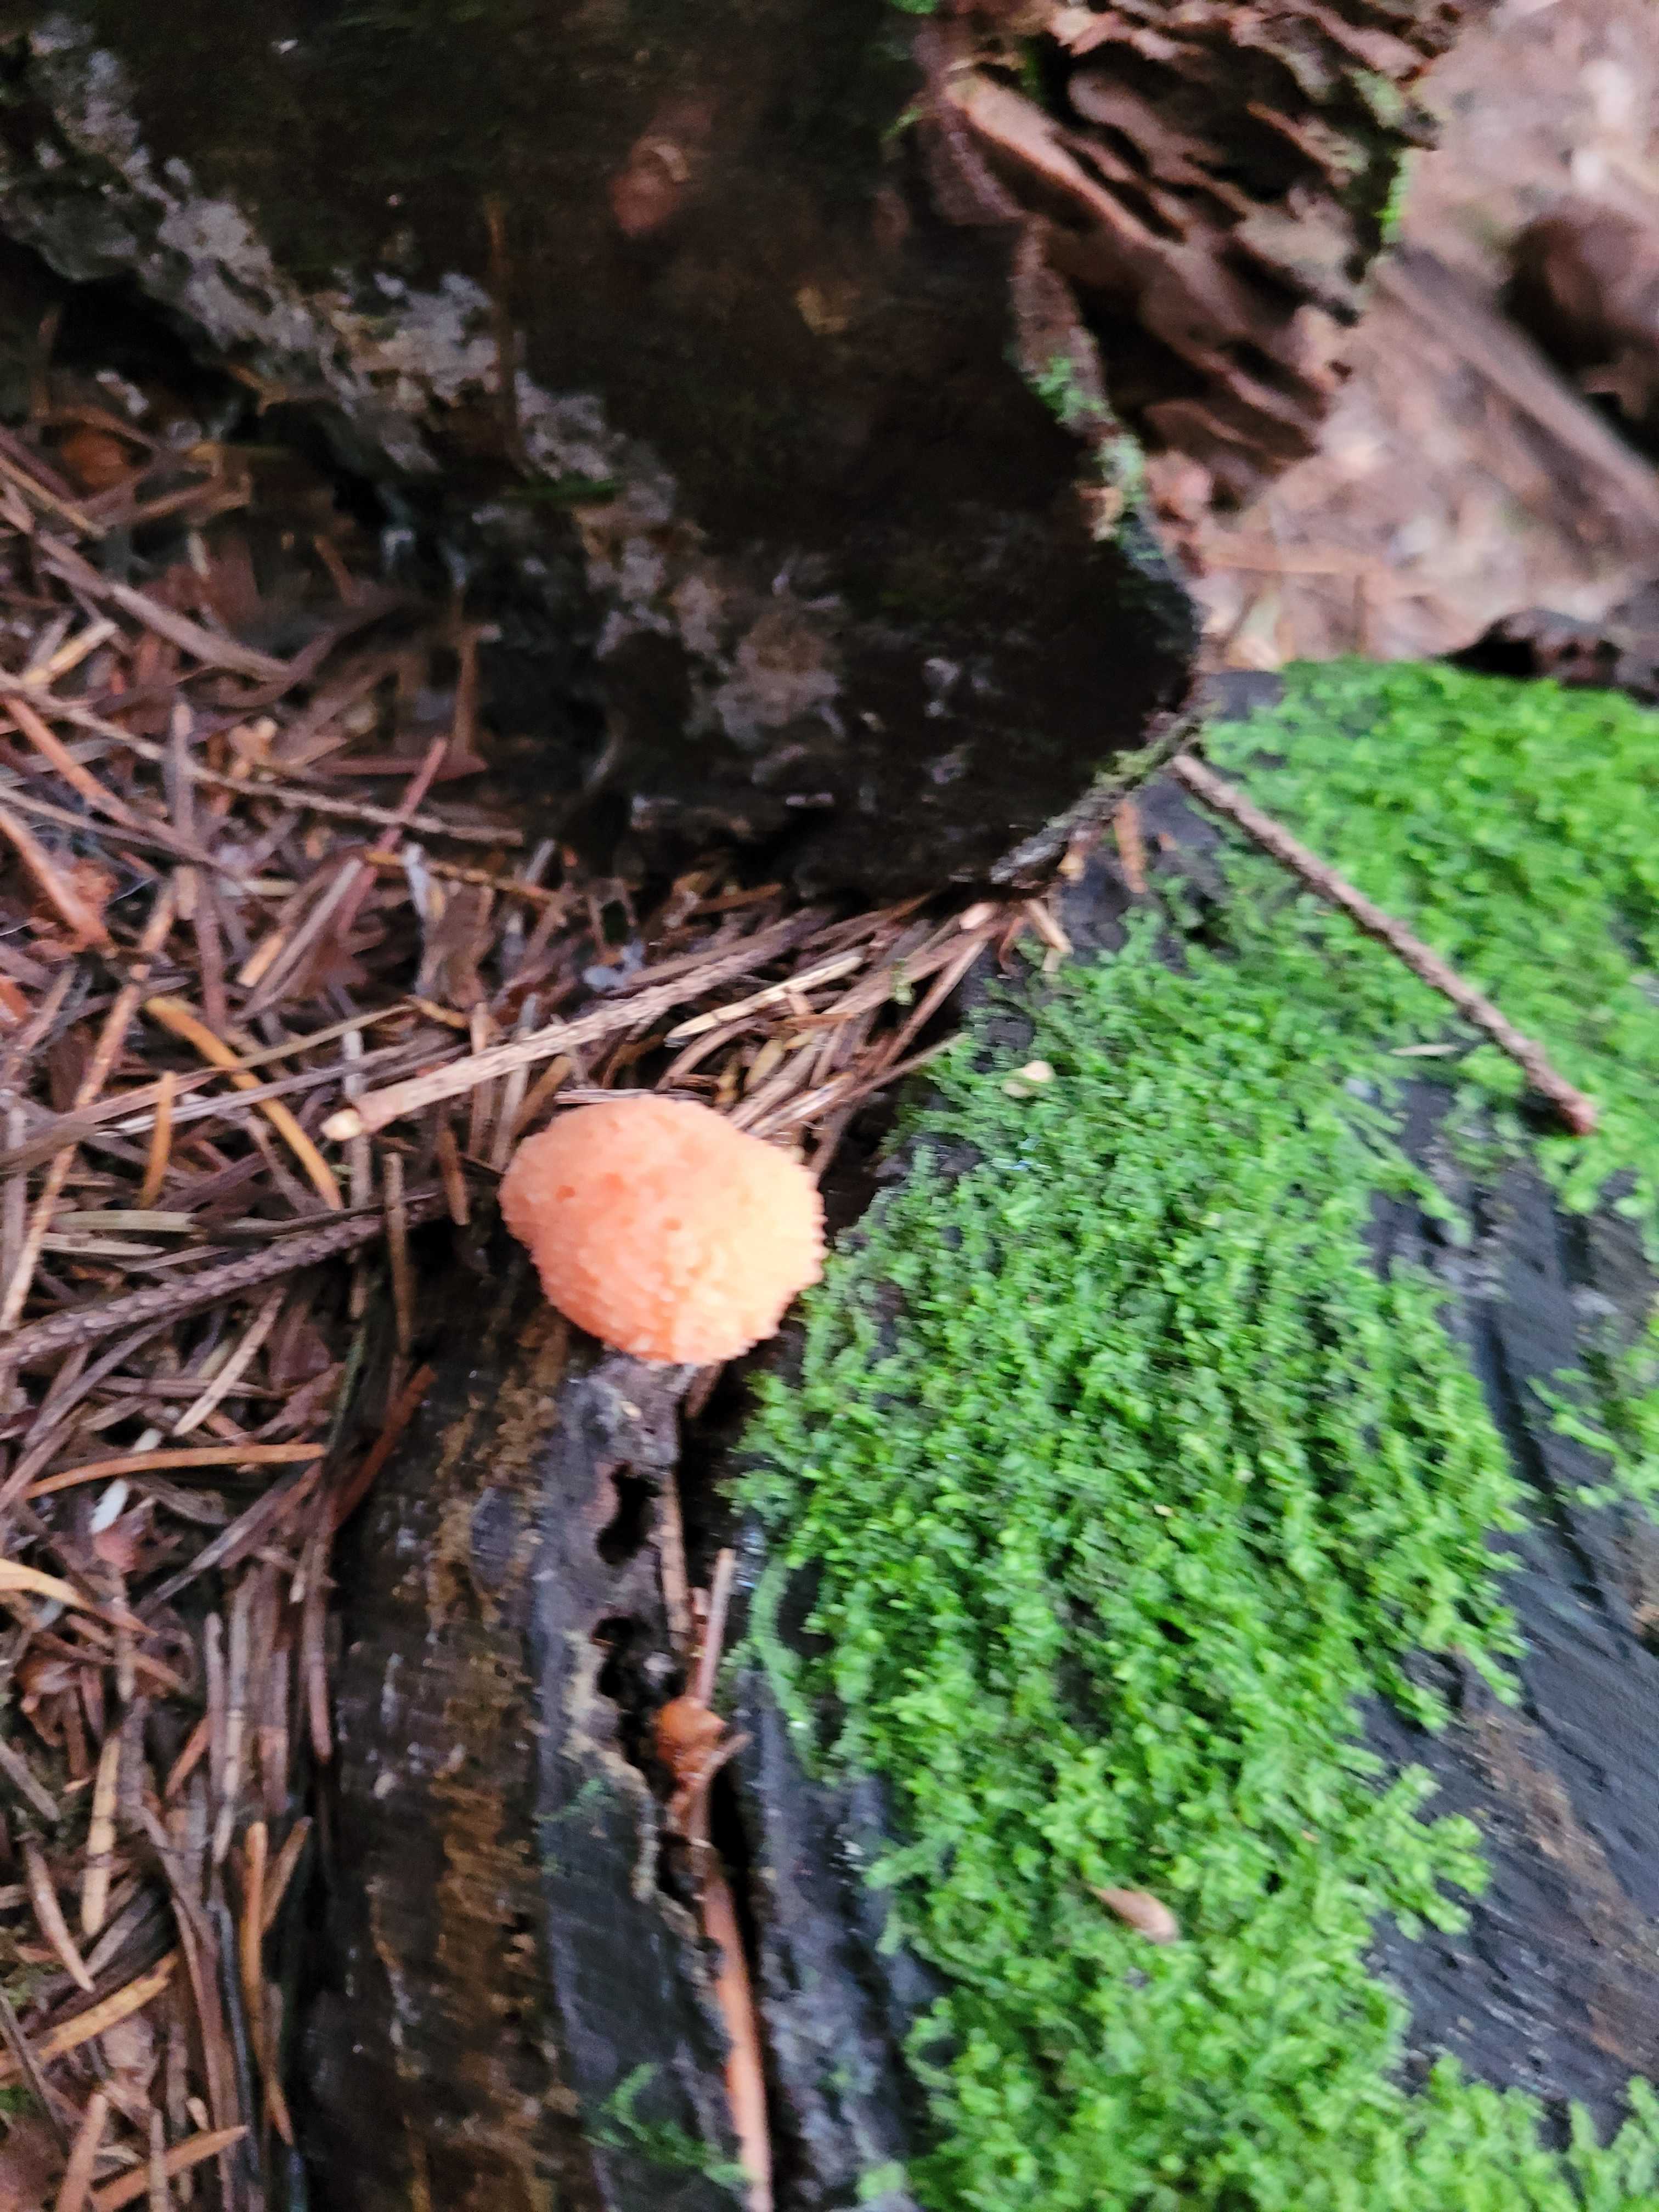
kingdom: Protozoa
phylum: Mycetozoa
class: Myxomycetes
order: Cribrariales
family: Tubiferaceae
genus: Tubifera
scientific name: Tubifera ferruginosa
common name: kanel-støvrør
